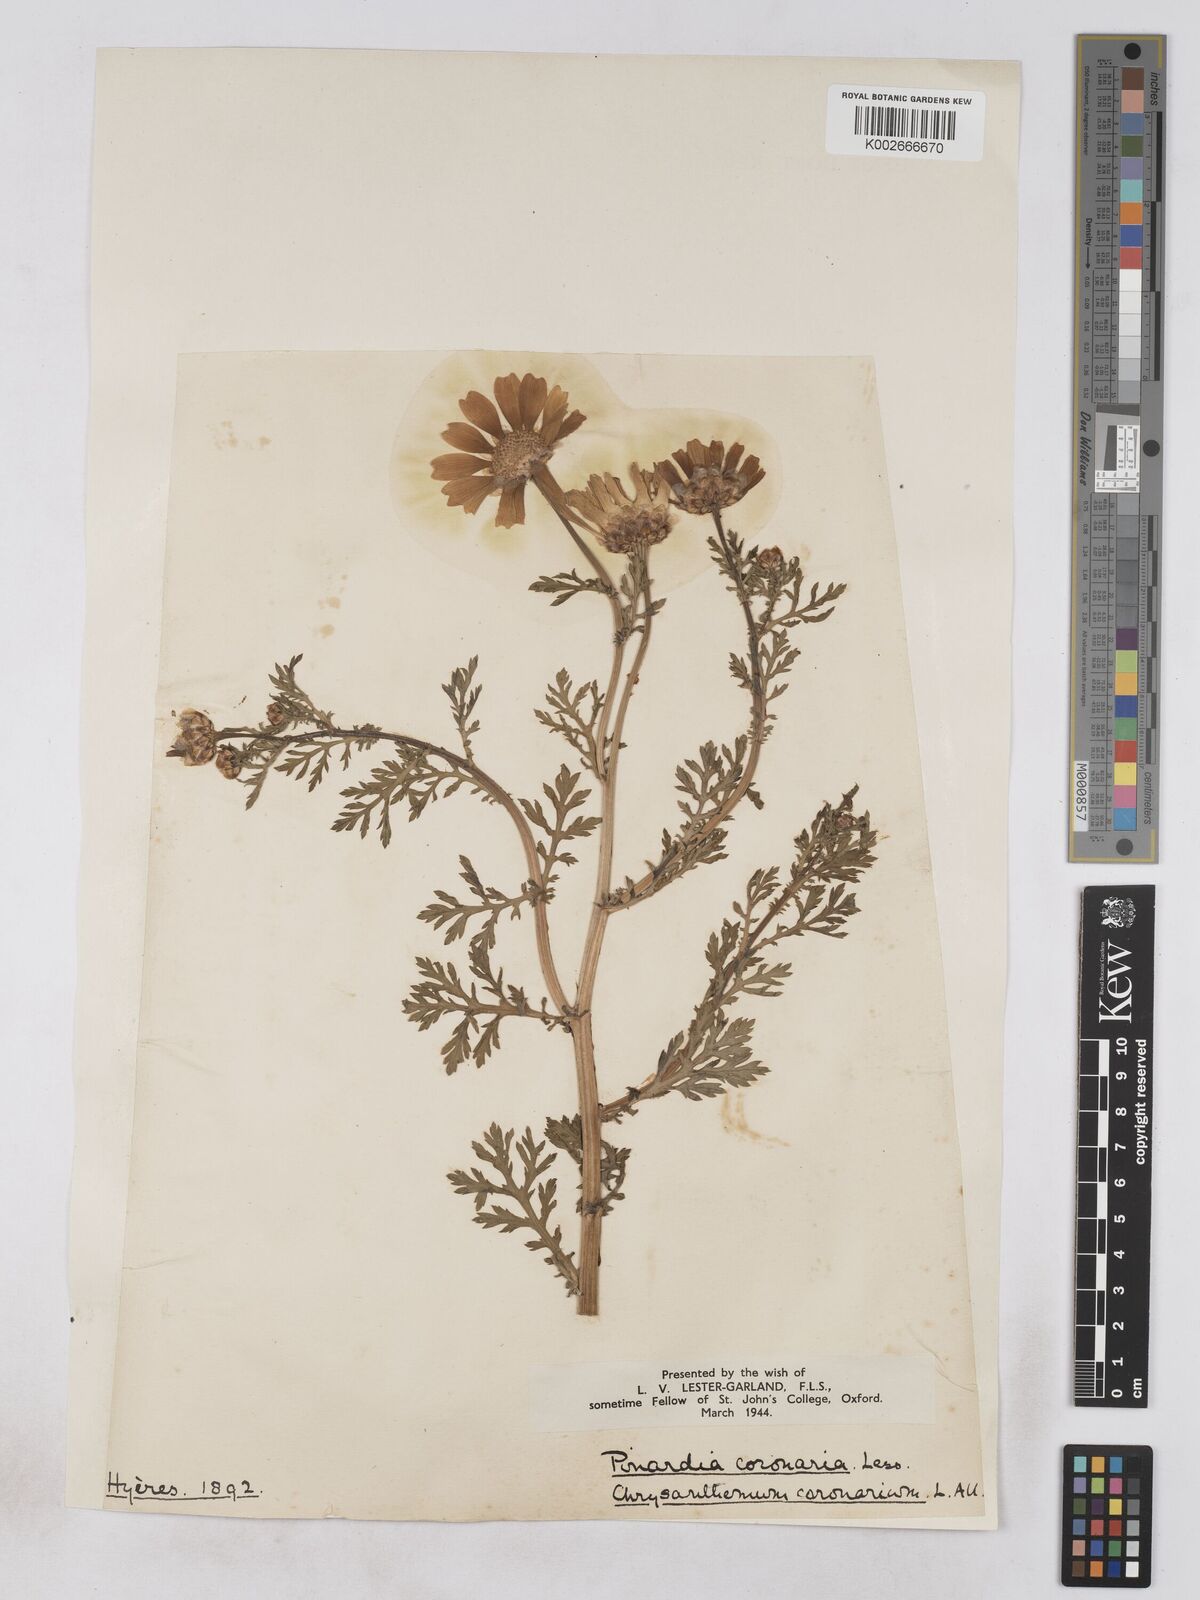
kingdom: Plantae
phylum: Tracheophyta
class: Magnoliopsida
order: Asterales
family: Asteraceae
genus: Glebionis
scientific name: Glebionis coronaria
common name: Crowndaisy
